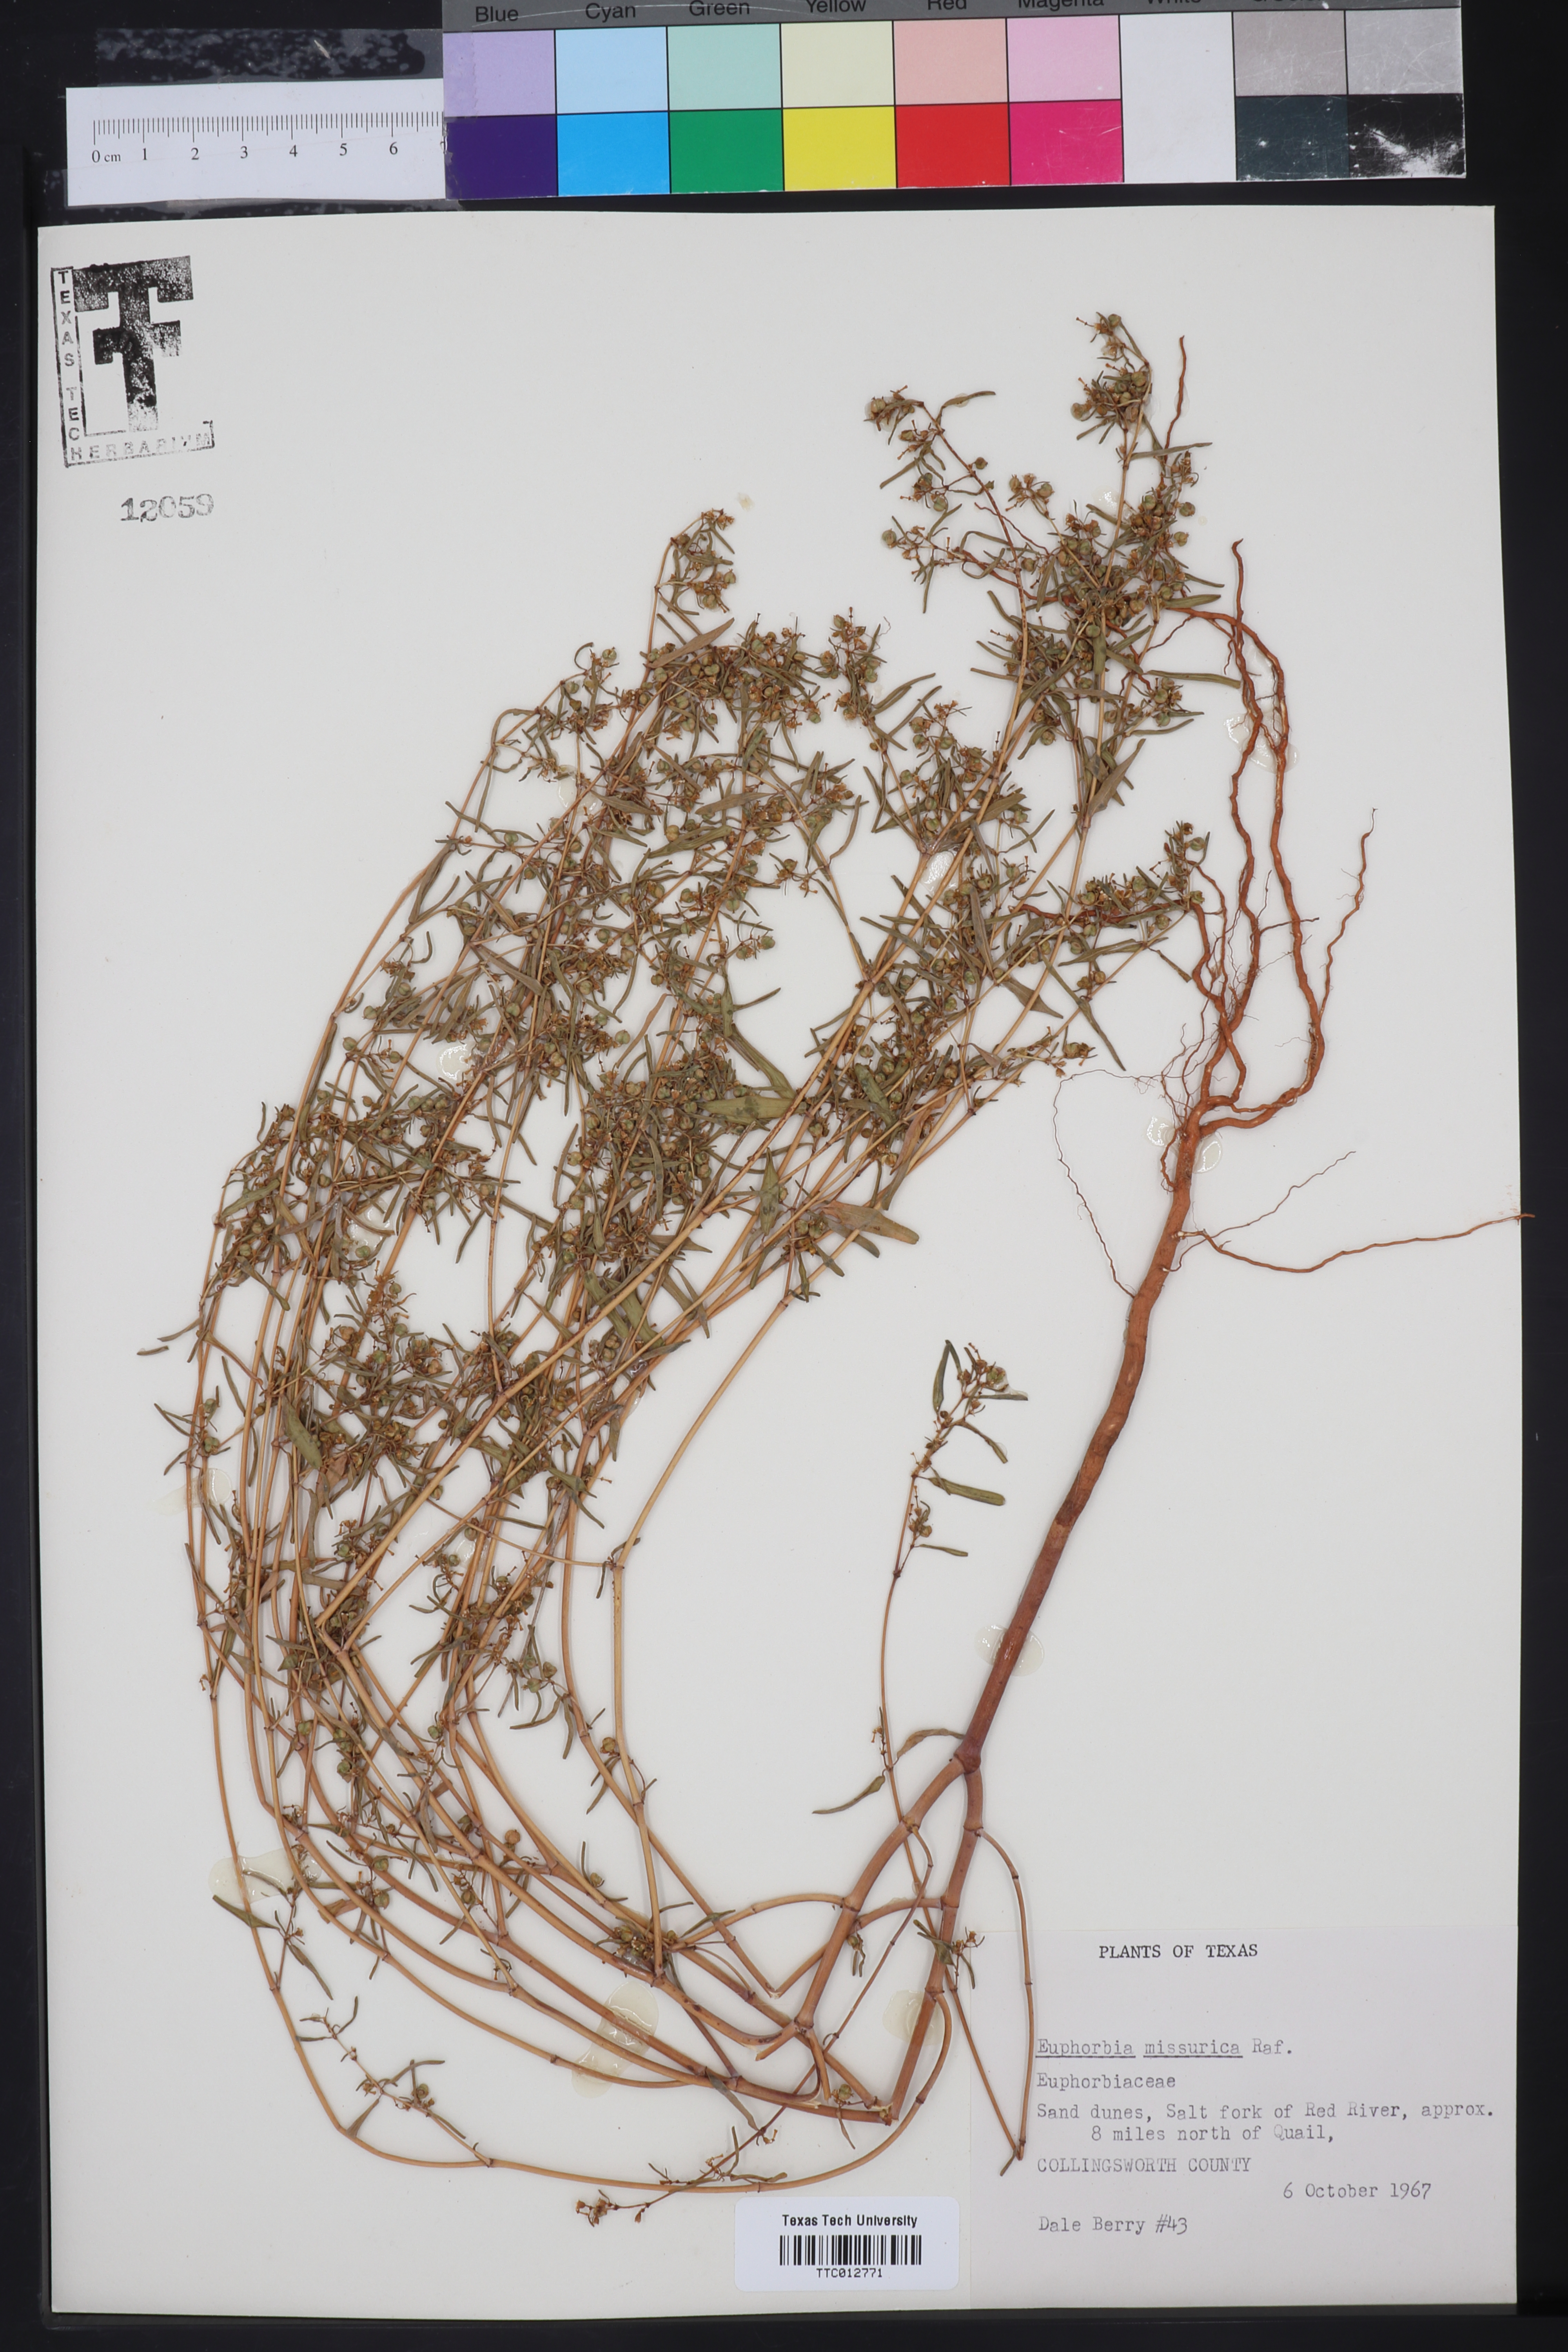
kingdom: Plantae
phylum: Tracheophyta
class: Magnoliopsida
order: Malpighiales
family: Euphorbiaceae
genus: Euphorbia
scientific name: Euphorbia missurica
